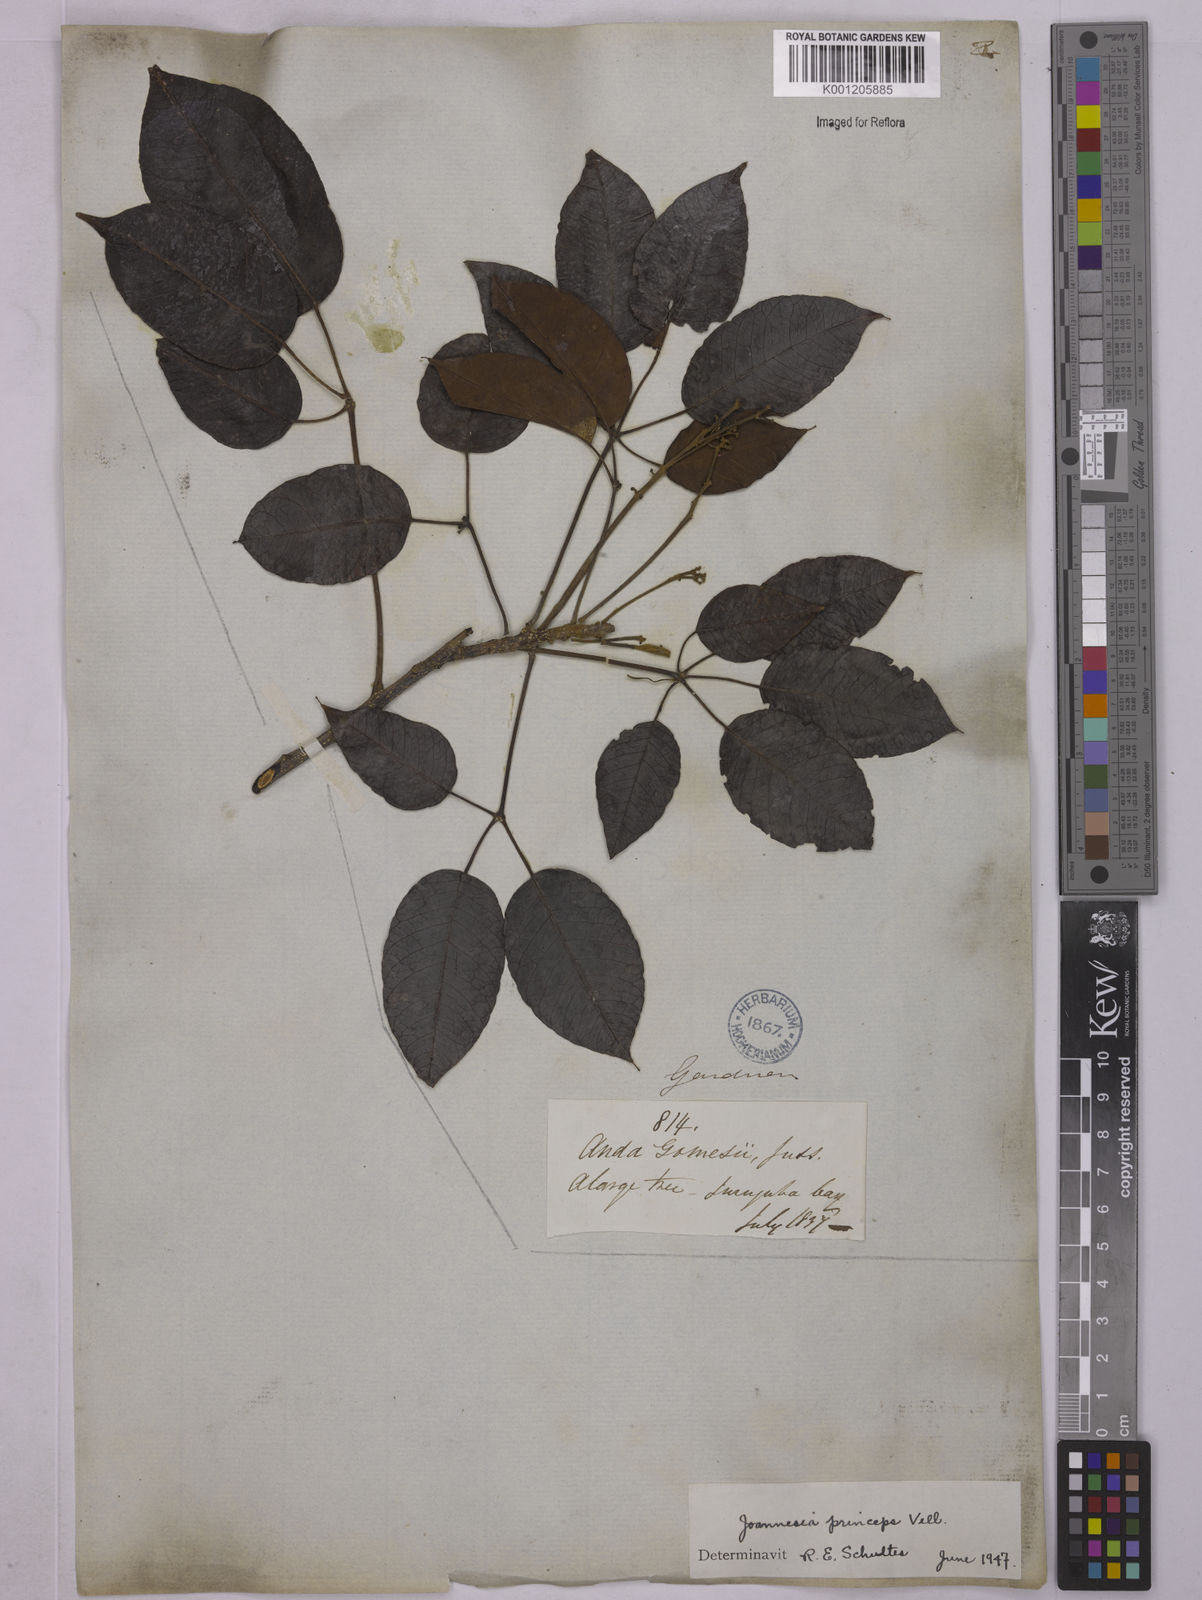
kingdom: Plantae
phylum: Tracheophyta
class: Magnoliopsida
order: Malpighiales
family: Euphorbiaceae
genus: Joannesia
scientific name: Joannesia princeps
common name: Arara nut-tree
